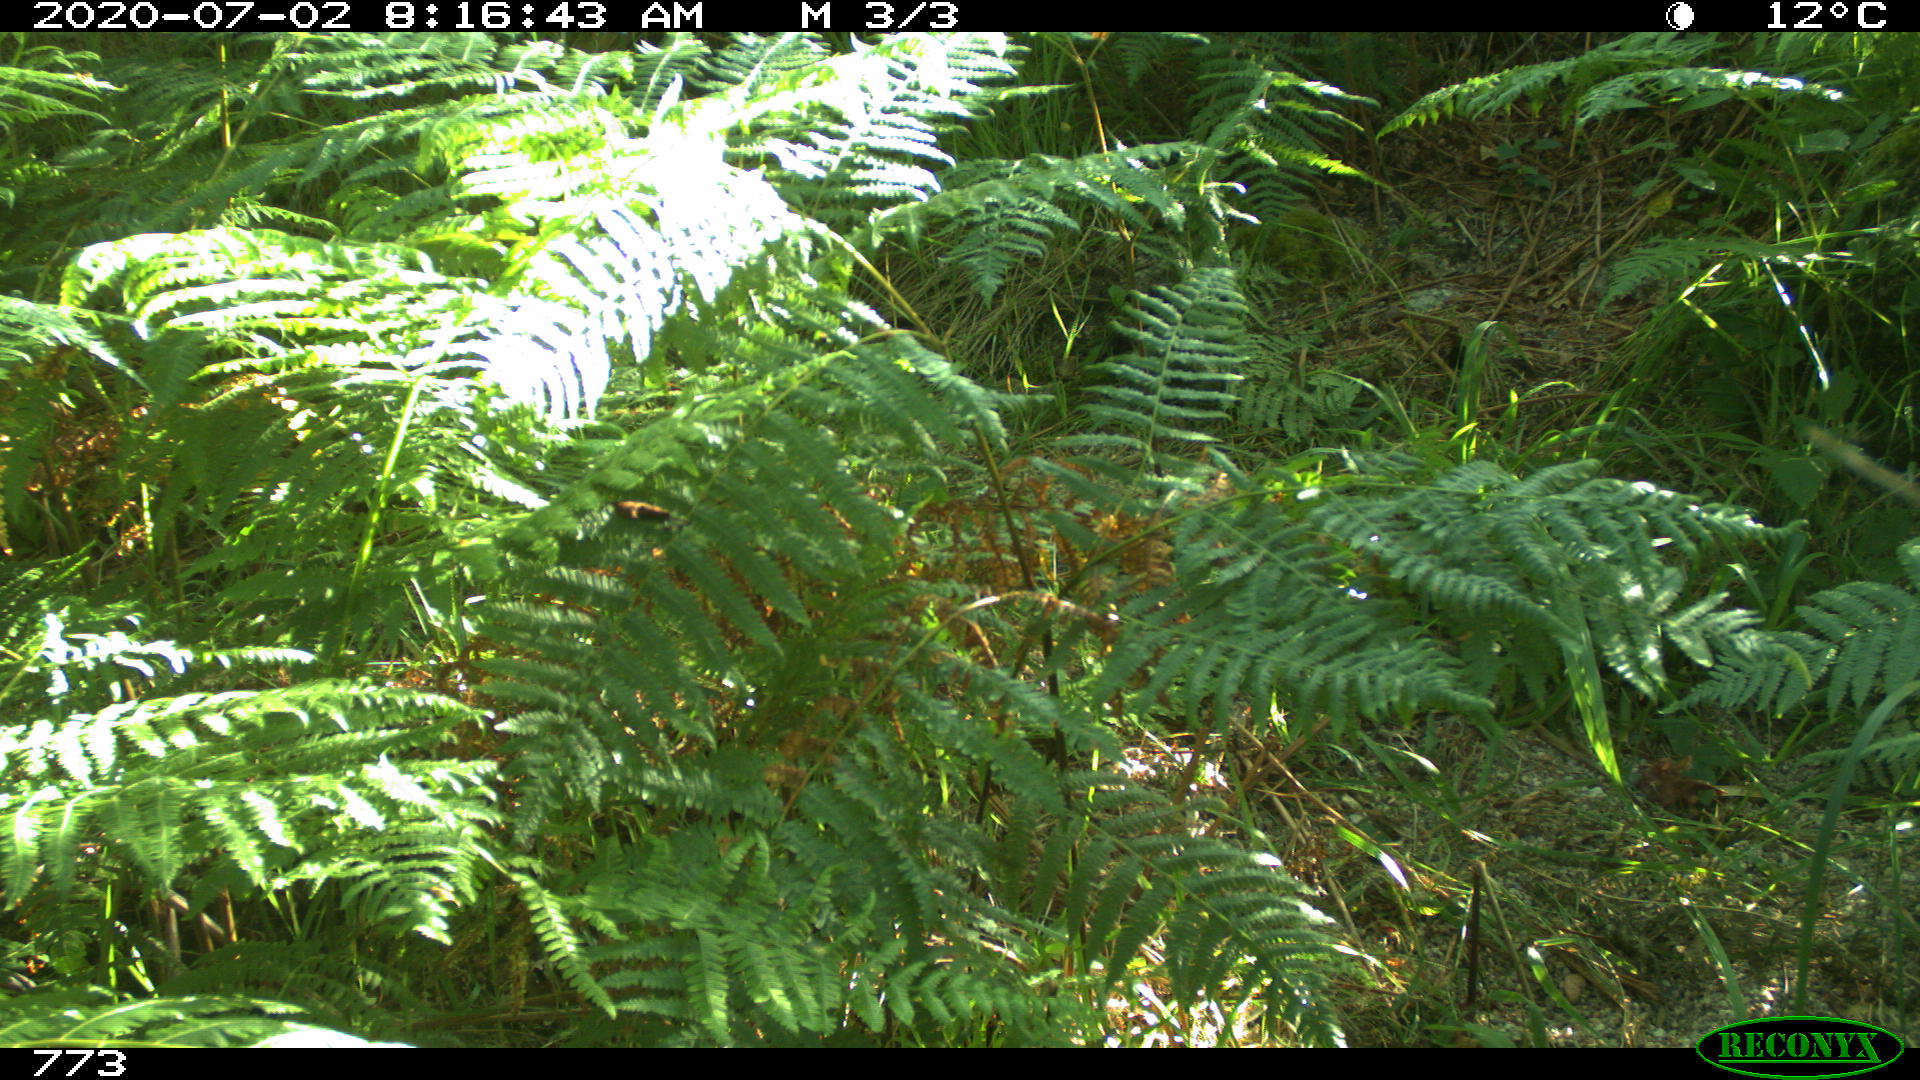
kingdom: Animalia
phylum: Chordata
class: Mammalia
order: Carnivora
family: Canidae
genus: Canis
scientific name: Canis lupus
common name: Gray wolf
